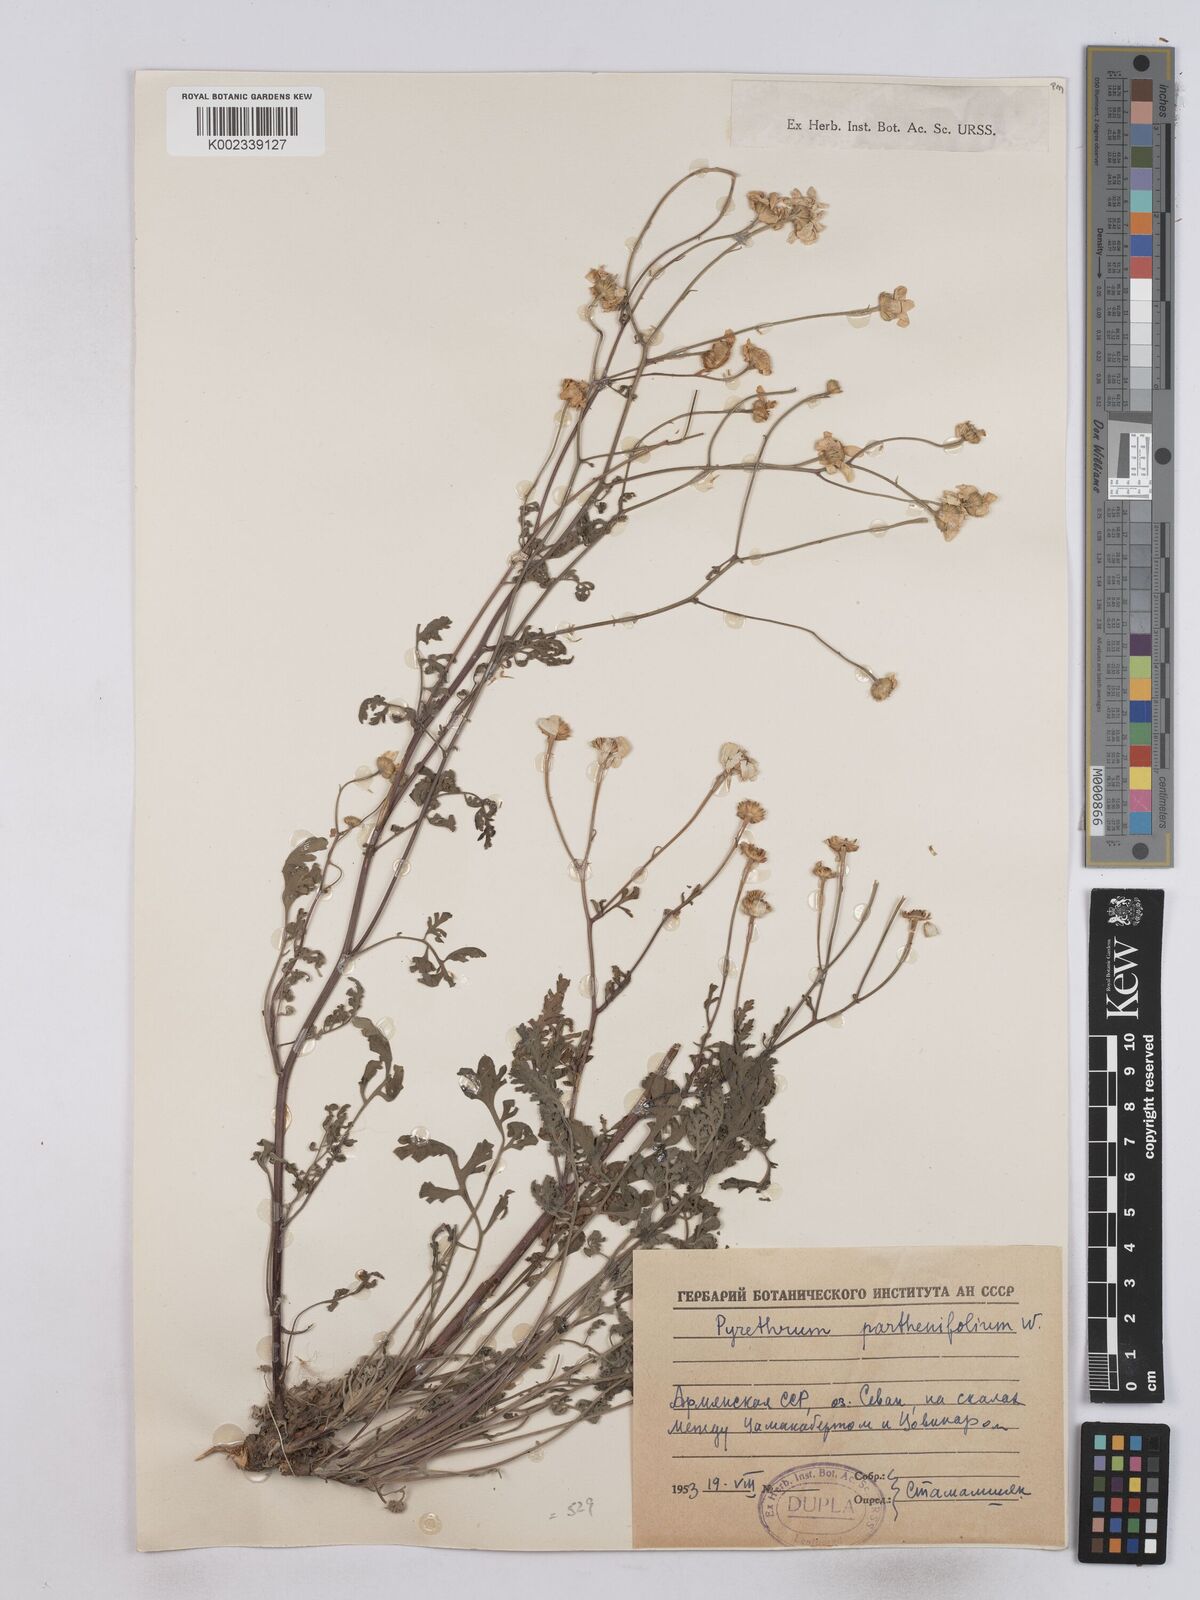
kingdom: Plantae
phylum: Tracheophyta
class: Magnoliopsida
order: Asterales
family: Asteraceae
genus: Tanacetum
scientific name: Tanacetum partheniifolium
